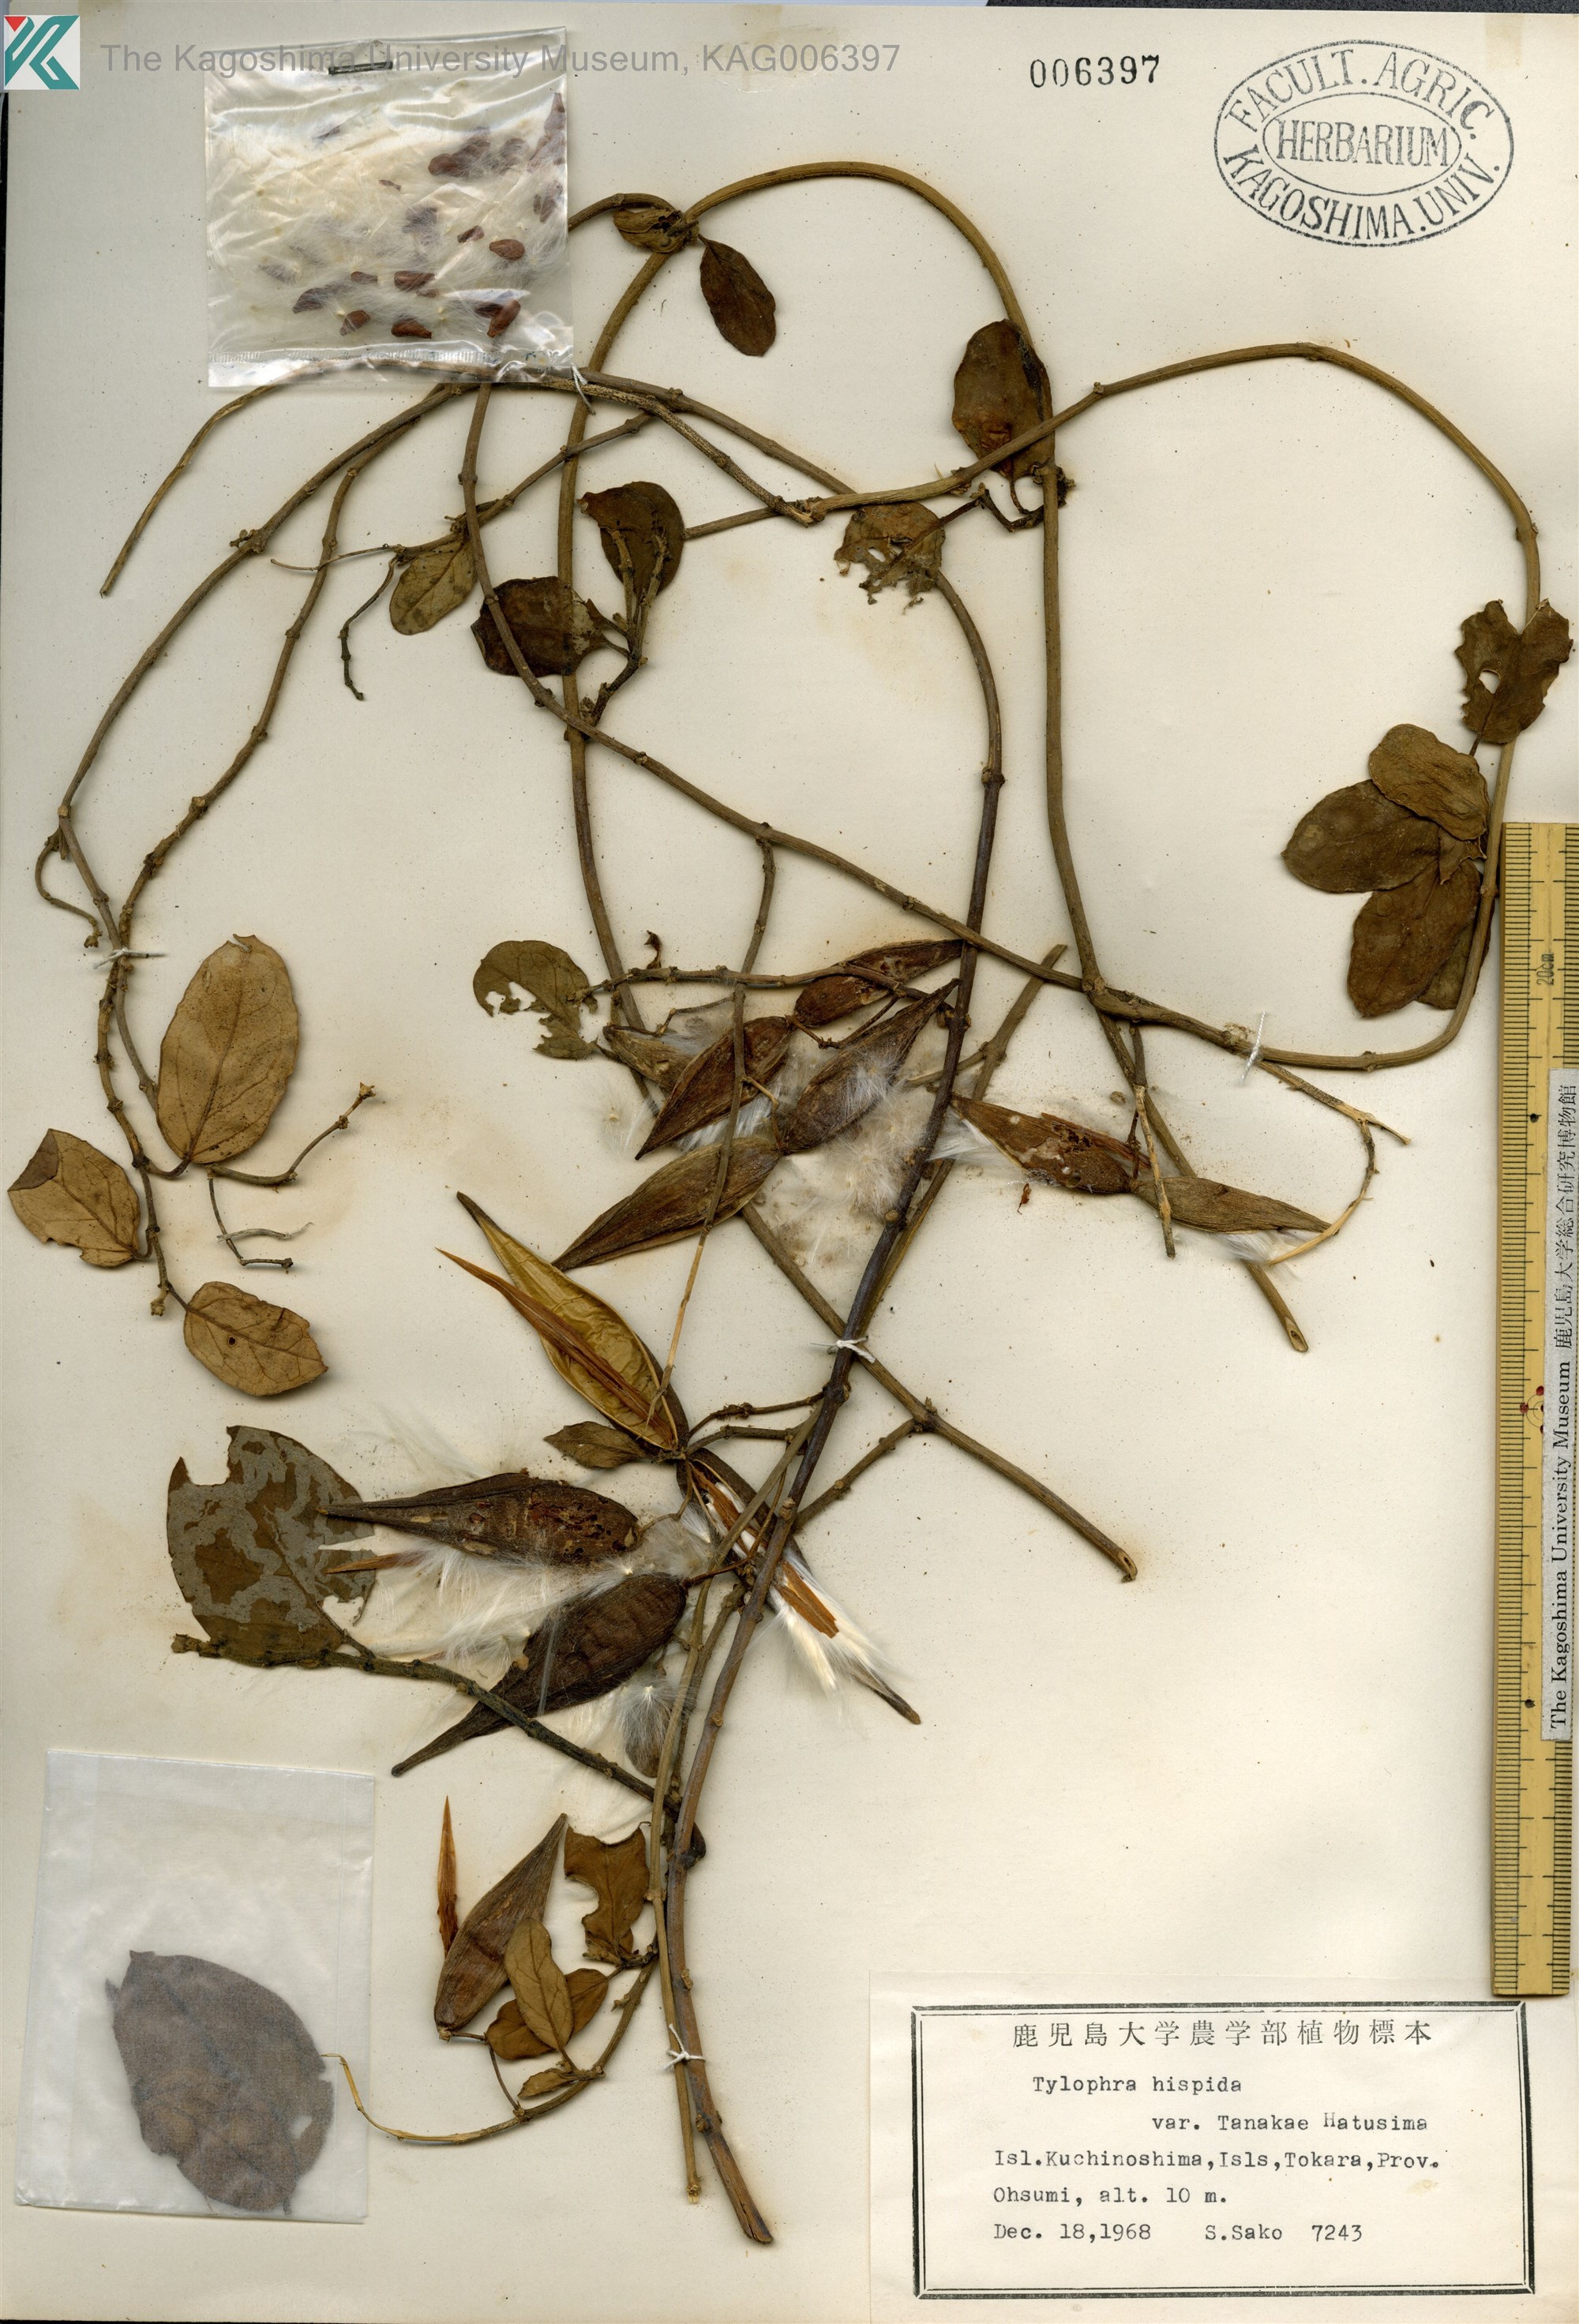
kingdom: Plantae
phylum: Tracheophyta
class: Magnoliopsida
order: Gentianales
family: Apocynaceae
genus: Vincetoxicum
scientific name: Vincetoxicum Tylophora tanakae
